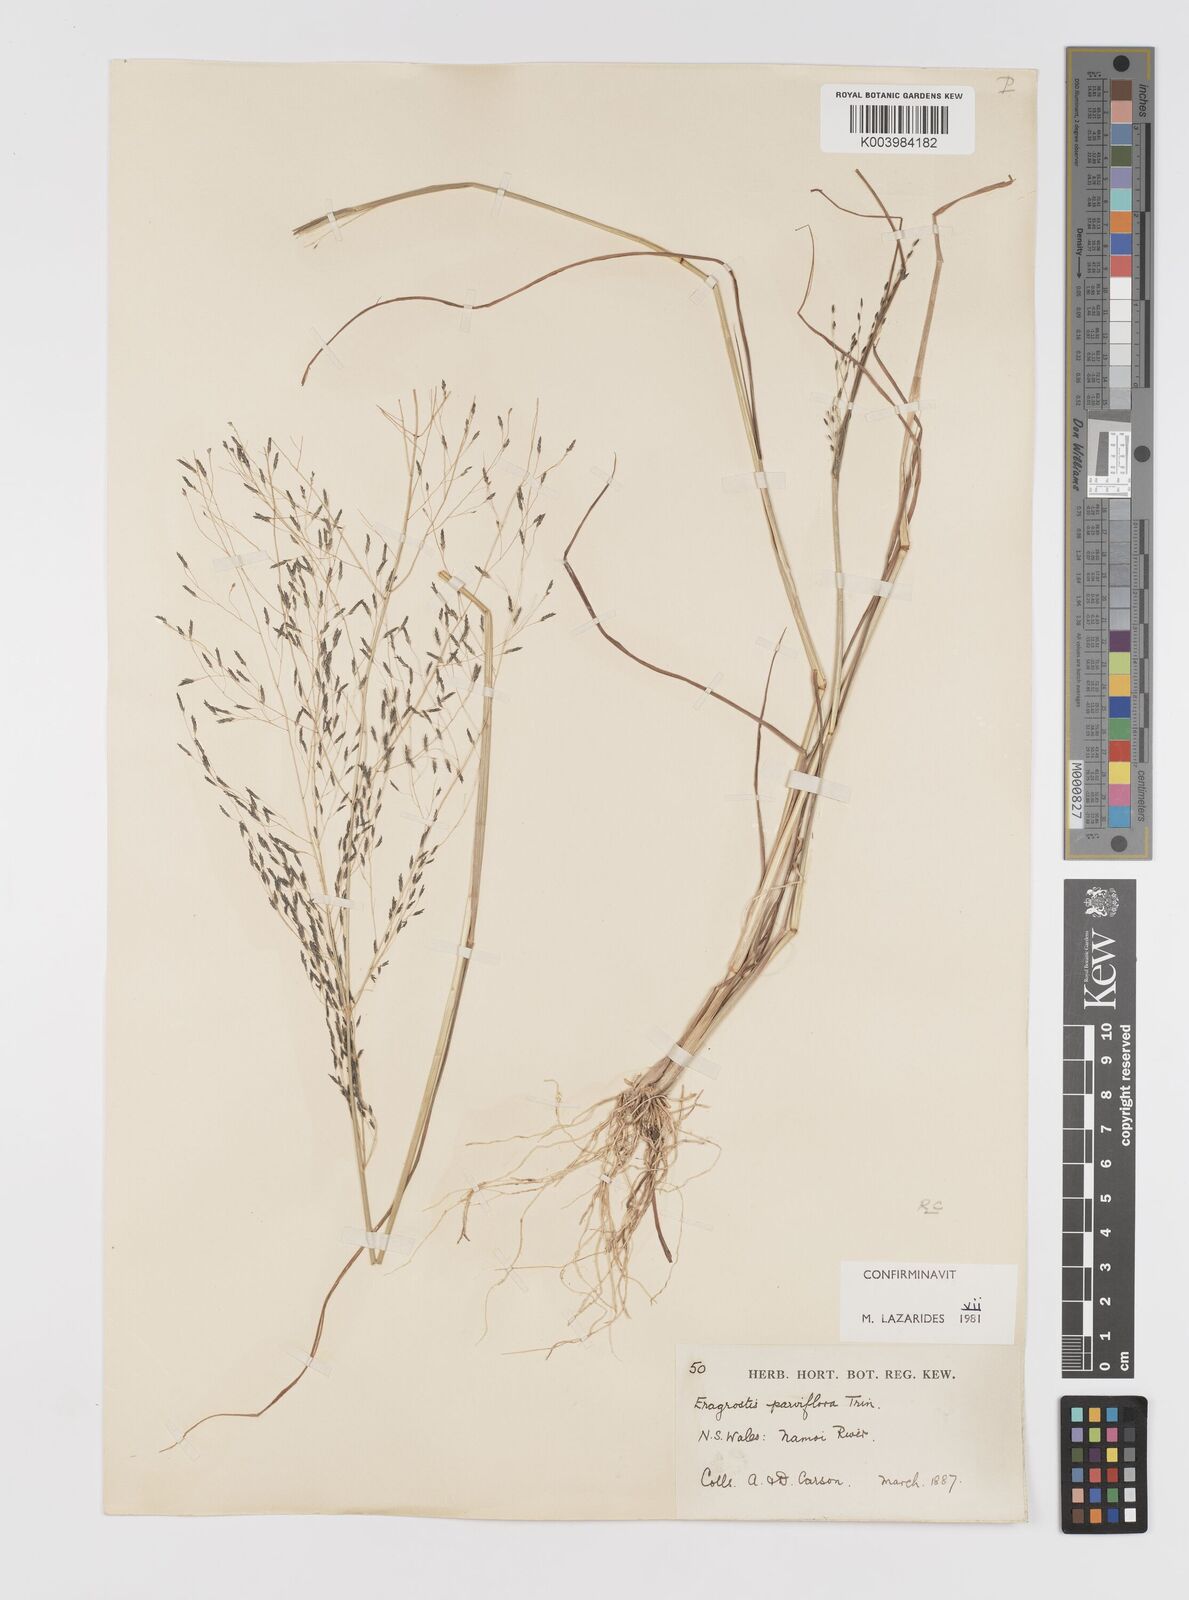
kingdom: Plantae
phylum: Tracheophyta
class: Liliopsida
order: Poales
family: Poaceae
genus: Eragrostis
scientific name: Eragrostis parviflora
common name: Weeping love-grass
